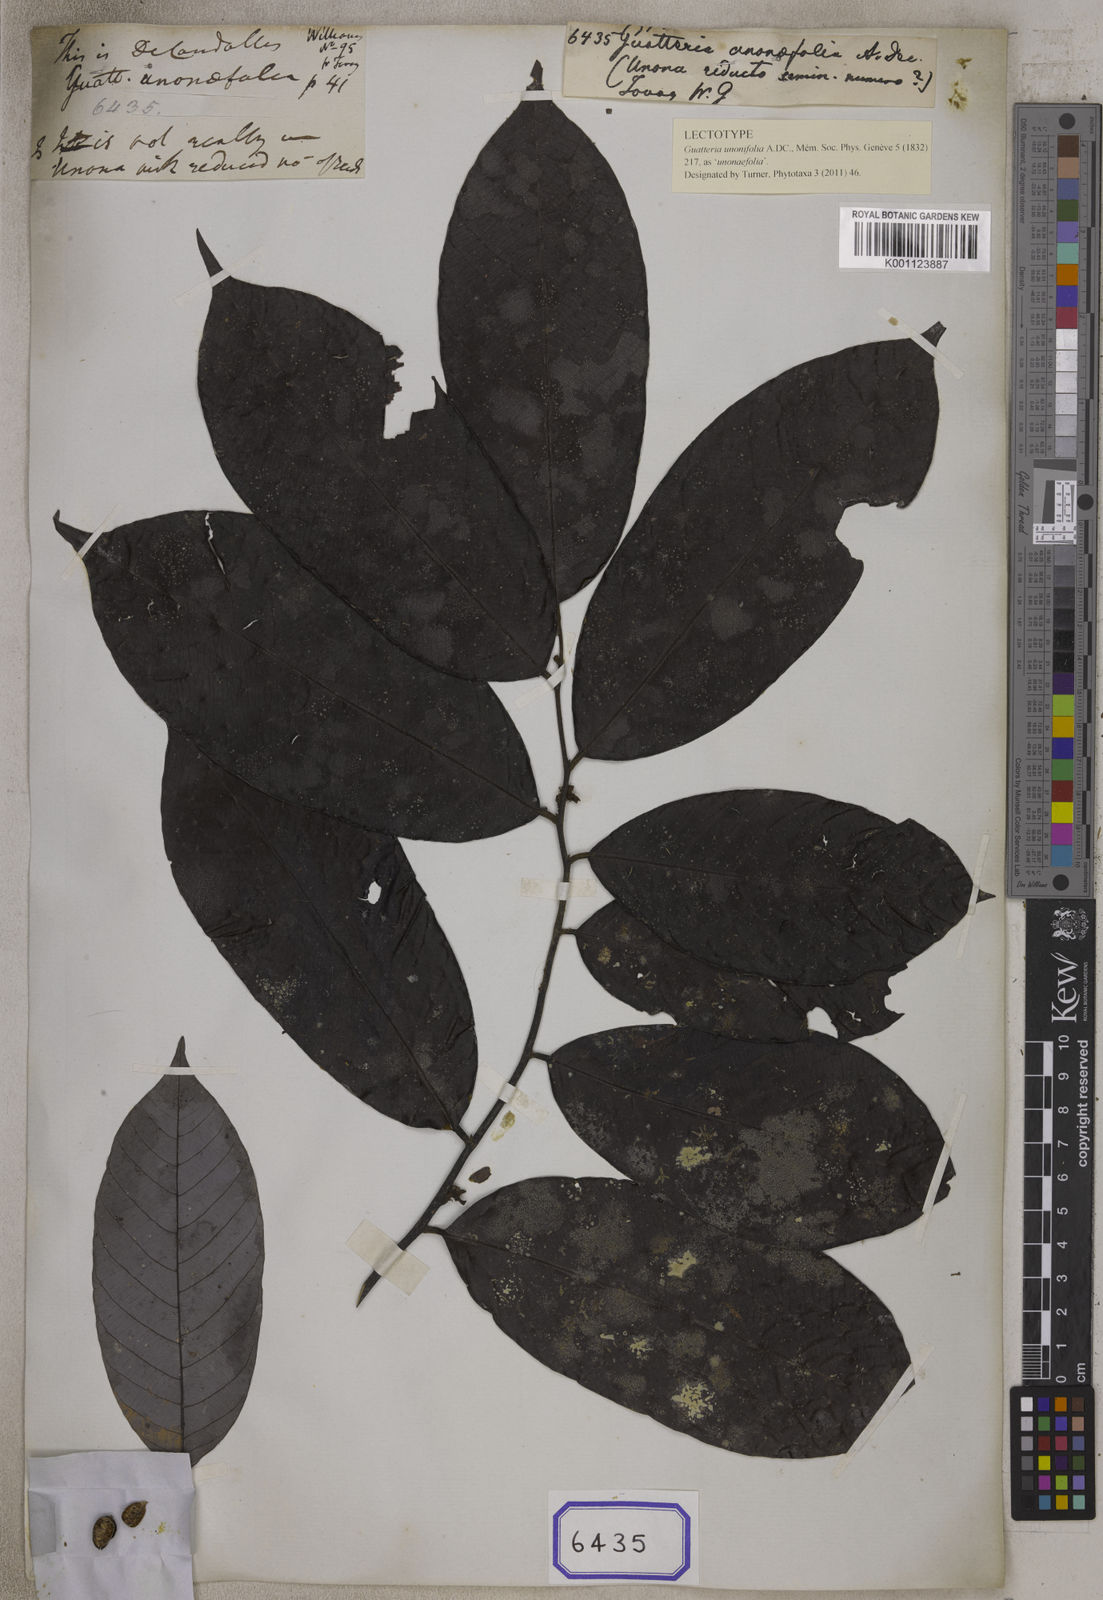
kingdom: Plantae
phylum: Tracheophyta
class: Magnoliopsida
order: Magnoliales
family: Annonaceae
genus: Guatteria
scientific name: Guatteria
